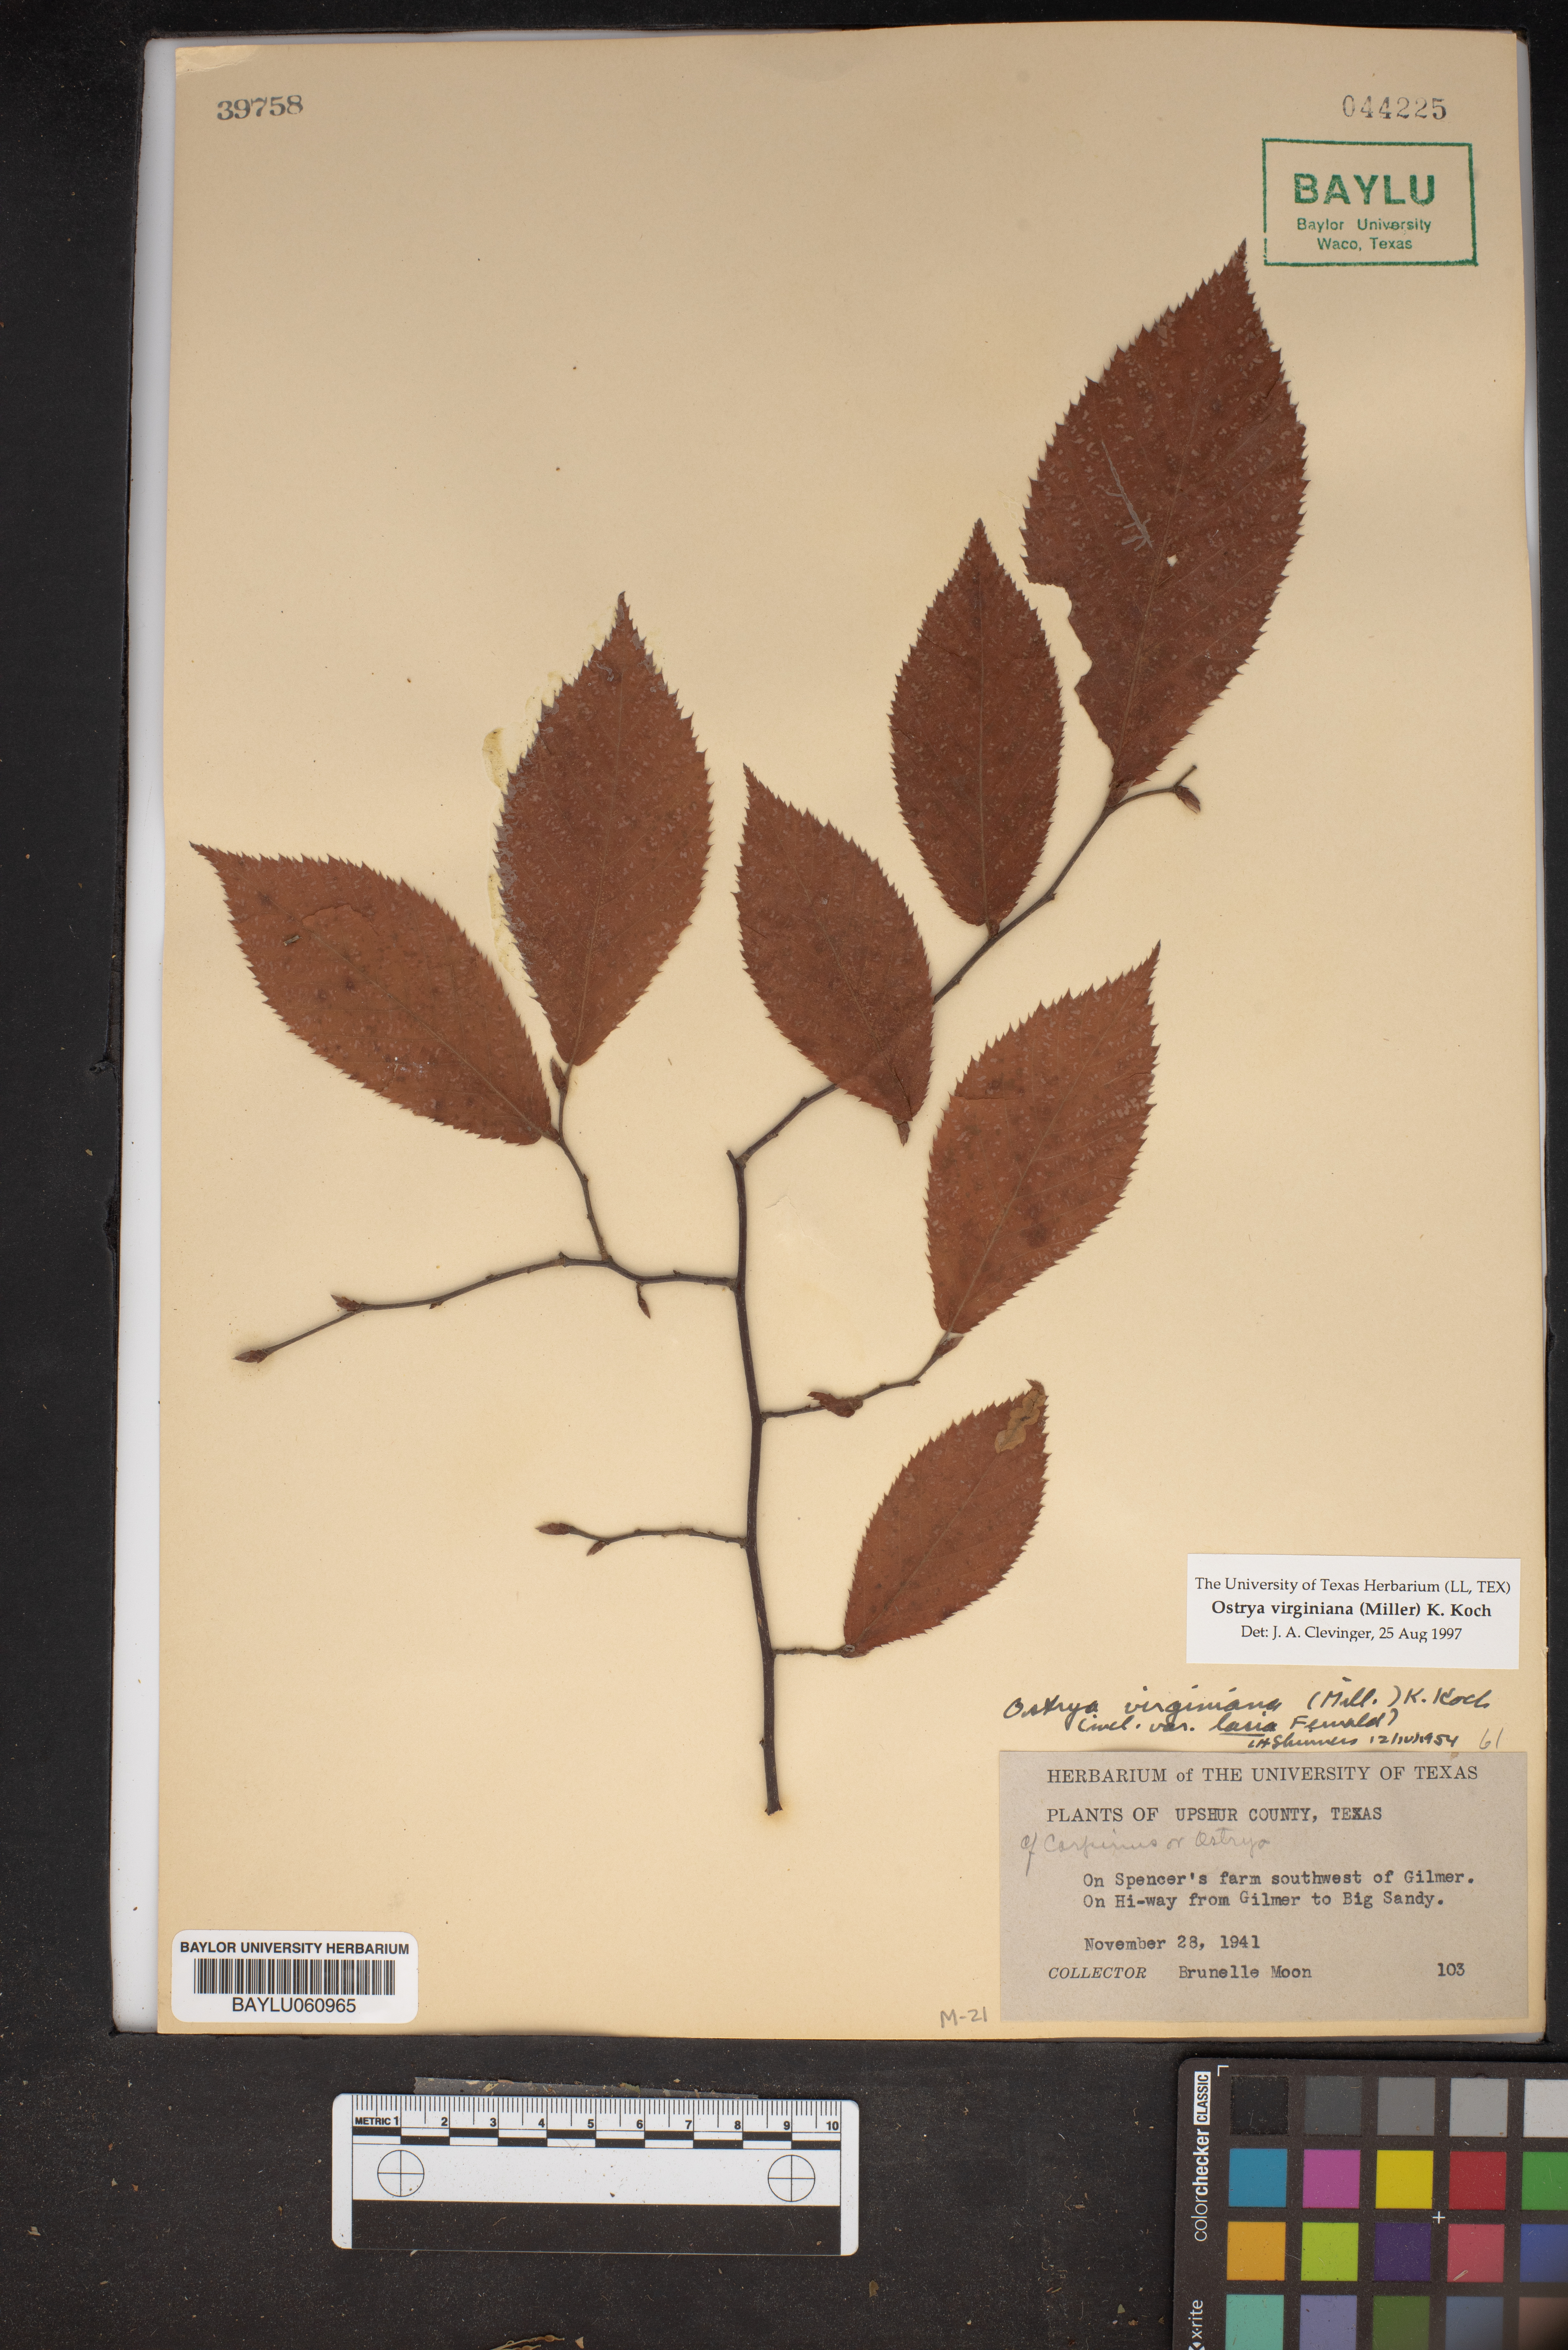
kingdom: Plantae
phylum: Tracheophyta
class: Magnoliopsida
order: Fagales
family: Betulaceae
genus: Ostrya
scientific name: Ostrya virginiana
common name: Ironwood
